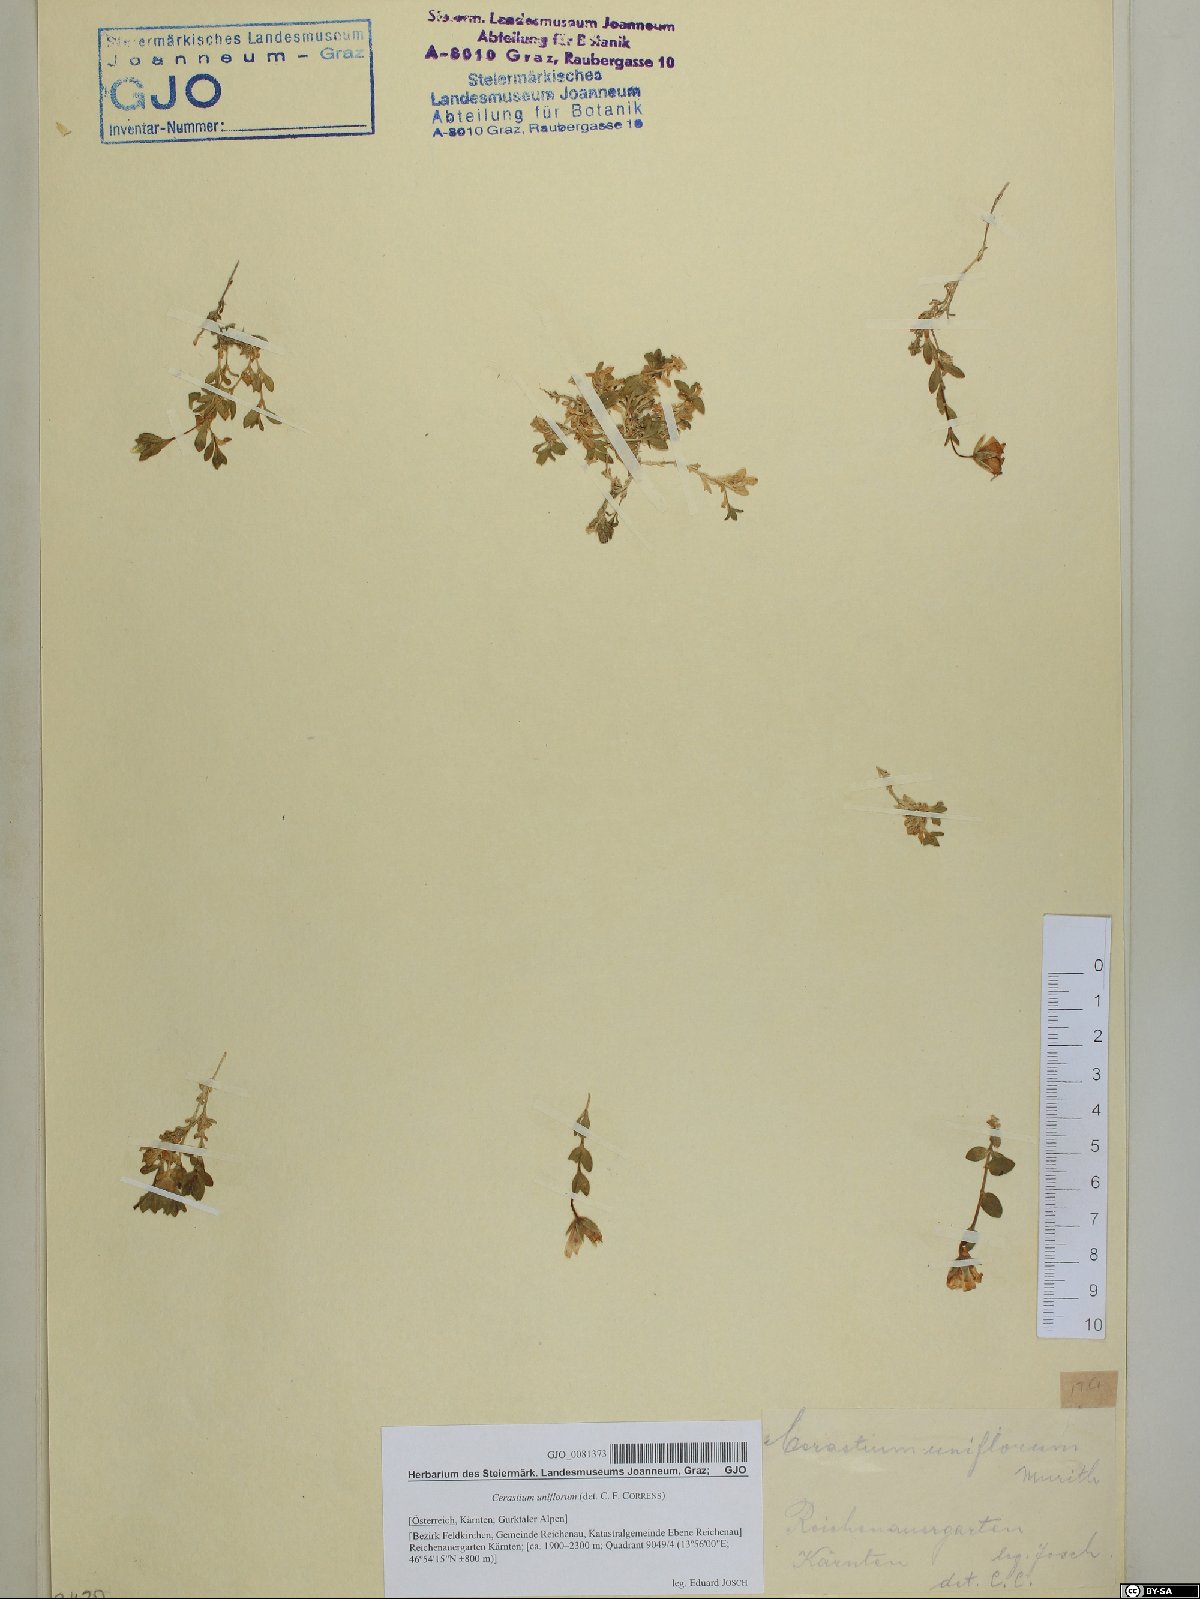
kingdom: Plantae
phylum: Tracheophyta
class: Magnoliopsida
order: Caryophyllales
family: Caryophyllaceae
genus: Cerastium
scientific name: Cerastium uniflorum
